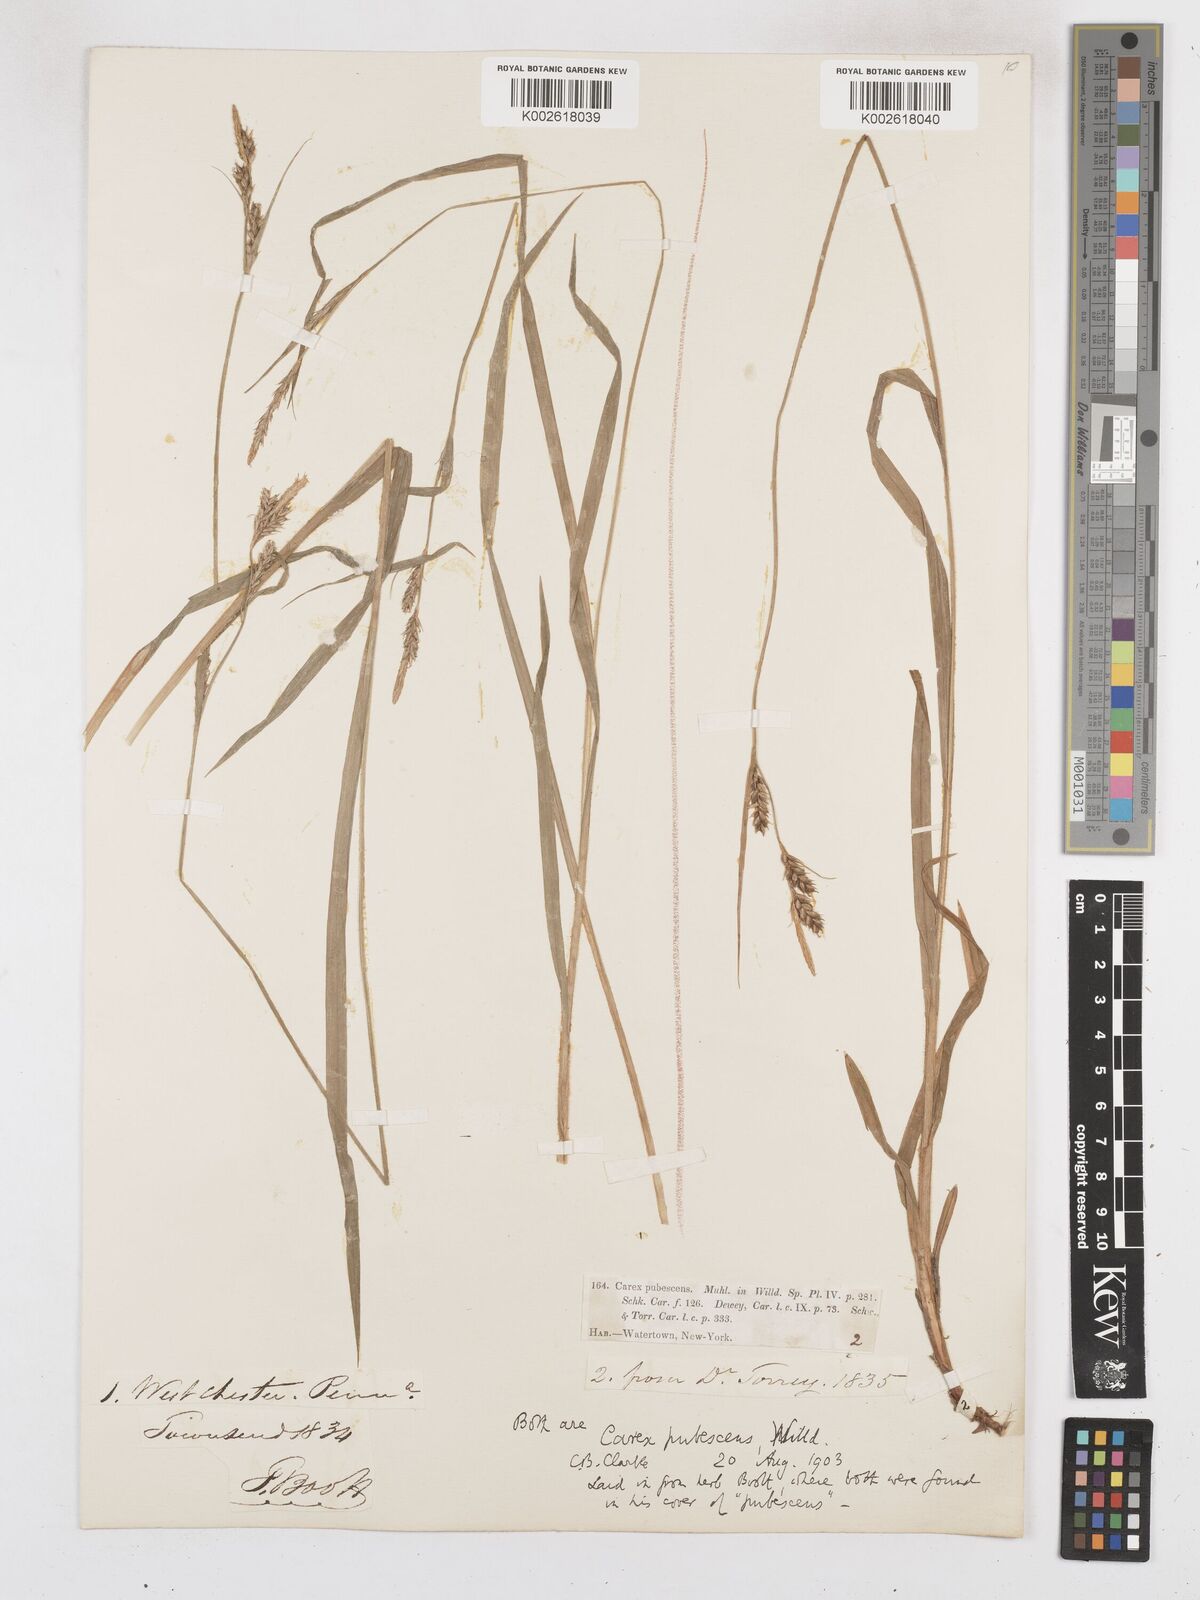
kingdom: Plantae
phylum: Tracheophyta
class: Liliopsida
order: Poales
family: Cyperaceae
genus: Carex
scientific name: Carex hirtifolia
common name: Hairy sedge
